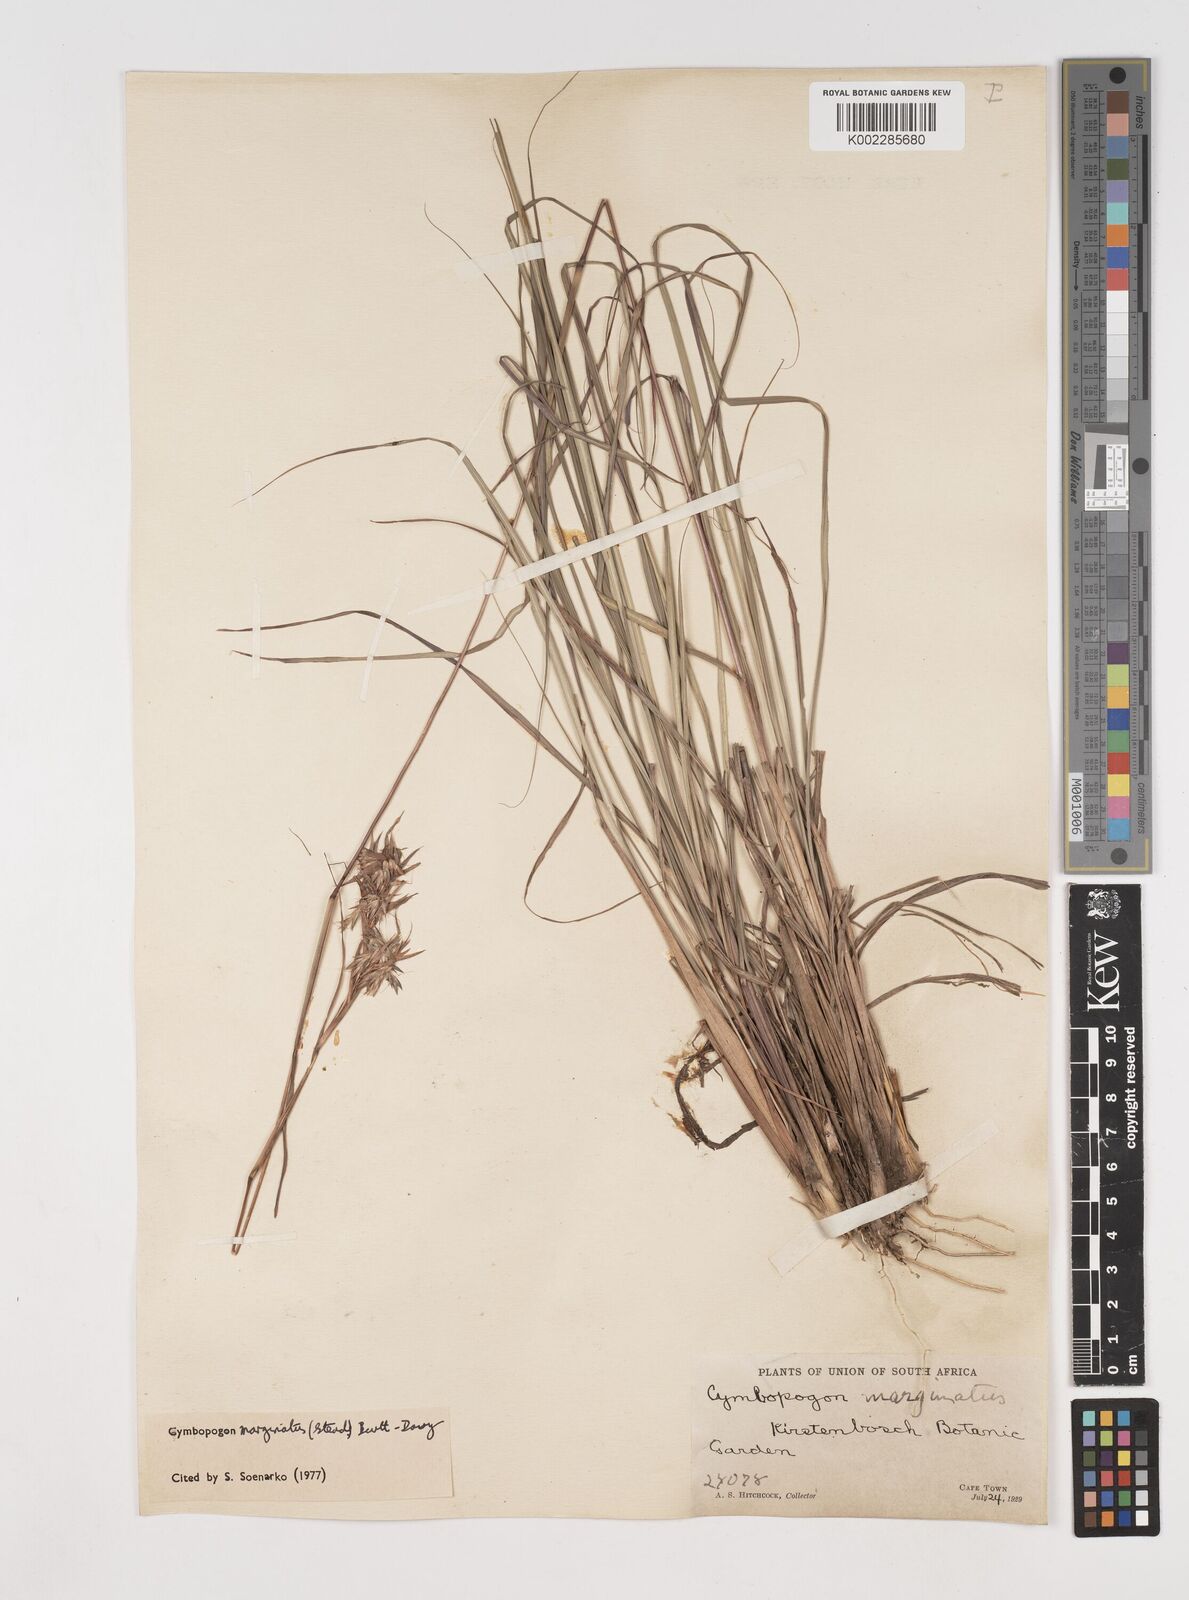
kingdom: Plantae
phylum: Tracheophyta
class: Liliopsida
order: Poales
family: Poaceae
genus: Cymbopogon
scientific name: Cymbopogon marginatus
